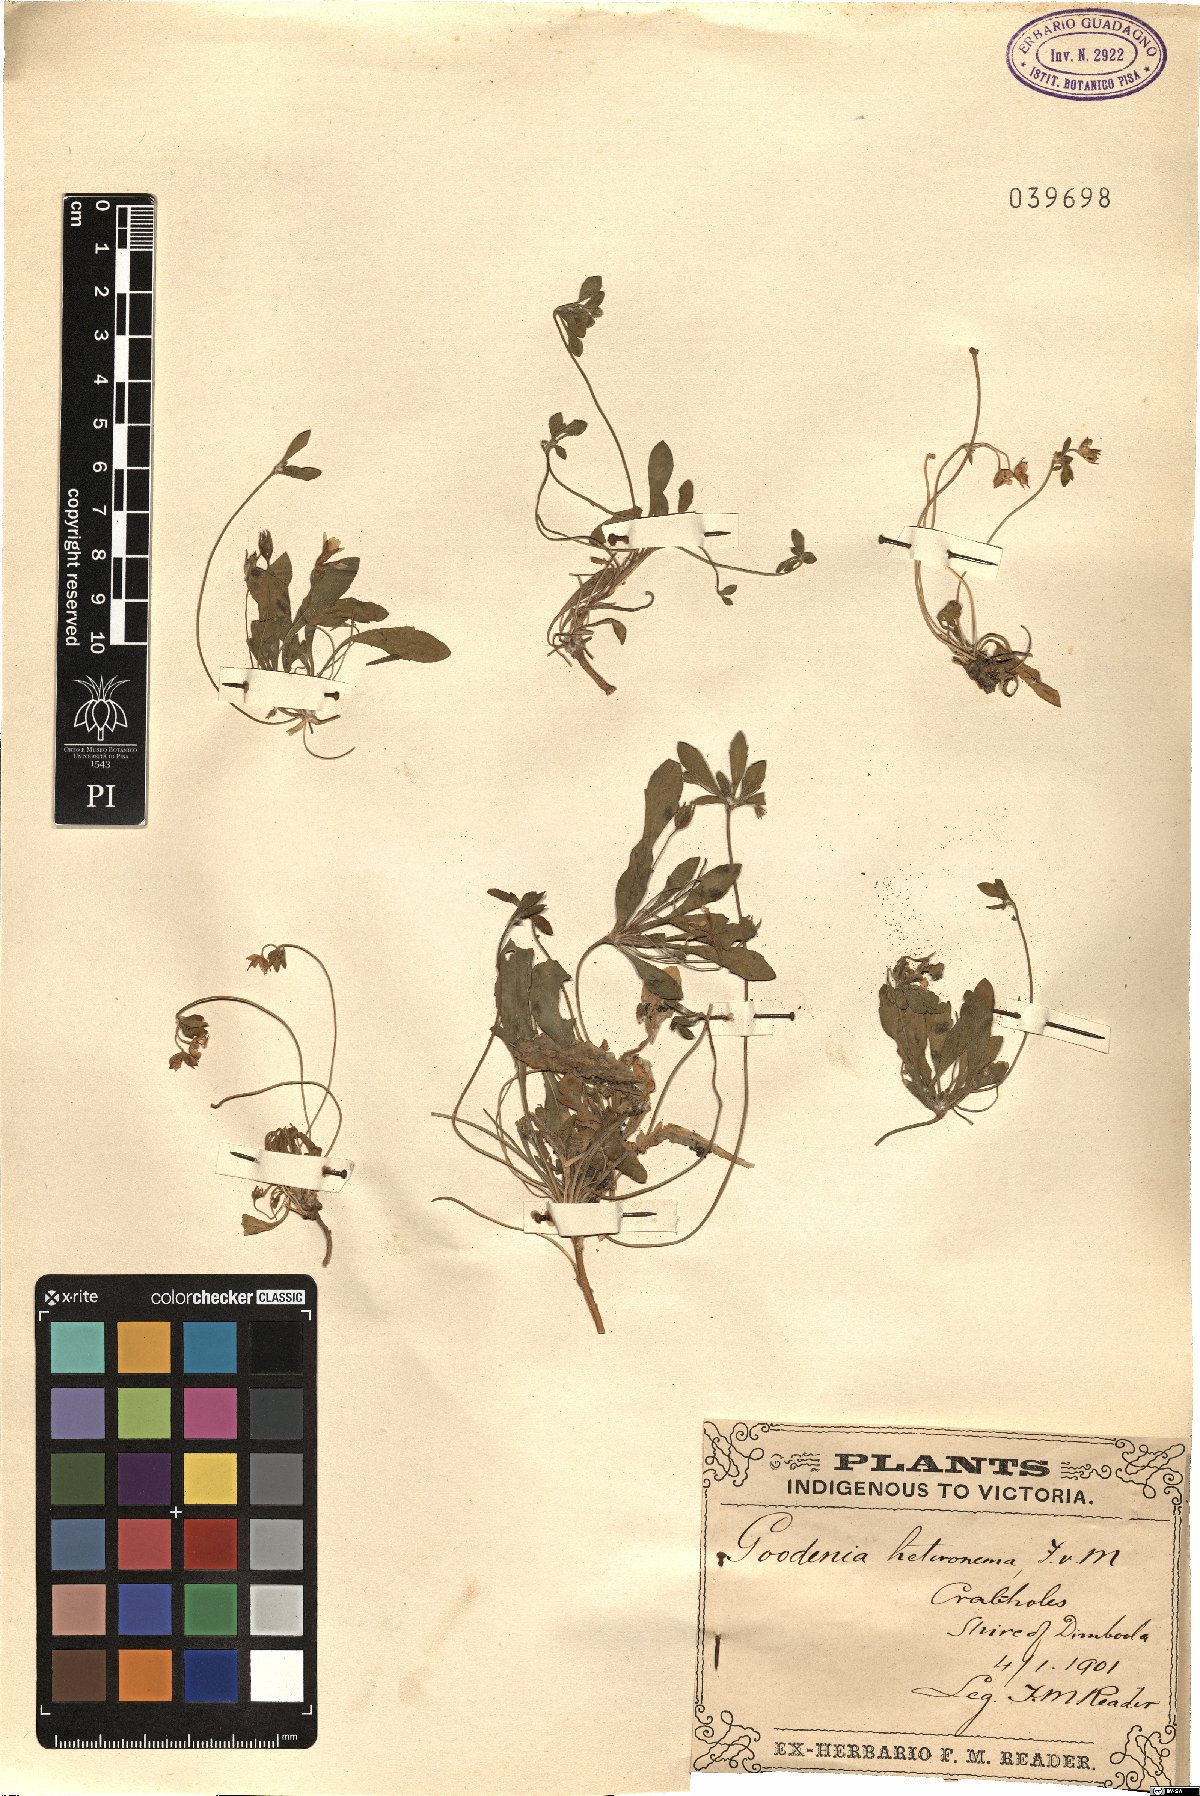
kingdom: Plantae
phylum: Tracheophyta
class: Magnoliopsida
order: Asterales
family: Goodeniaceae
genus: Goodenia
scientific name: Goodenia heteromera
